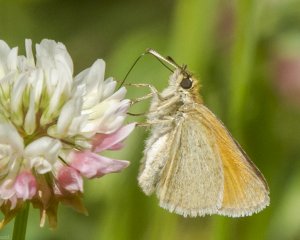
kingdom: Animalia
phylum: Arthropoda
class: Insecta
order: Lepidoptera
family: Hesperiidae
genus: Thymelicus
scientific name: Thymelicus lineola
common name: European Skipper
